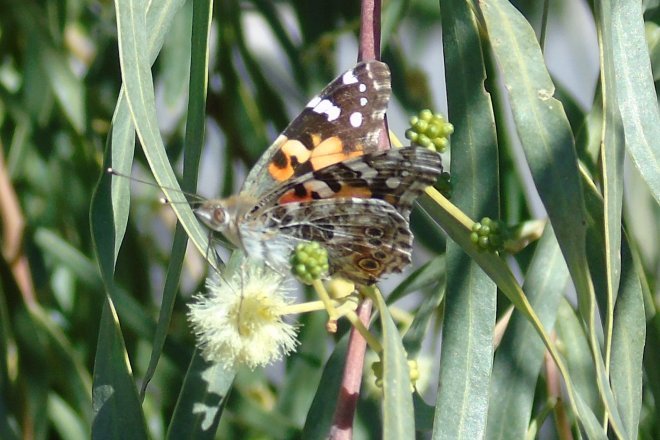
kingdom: Animalia
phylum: Arthropoda
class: Insecta
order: Lepidoptera
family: Nymphalidae
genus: Vanessa
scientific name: Vanessa cardui
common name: Painted Lady
